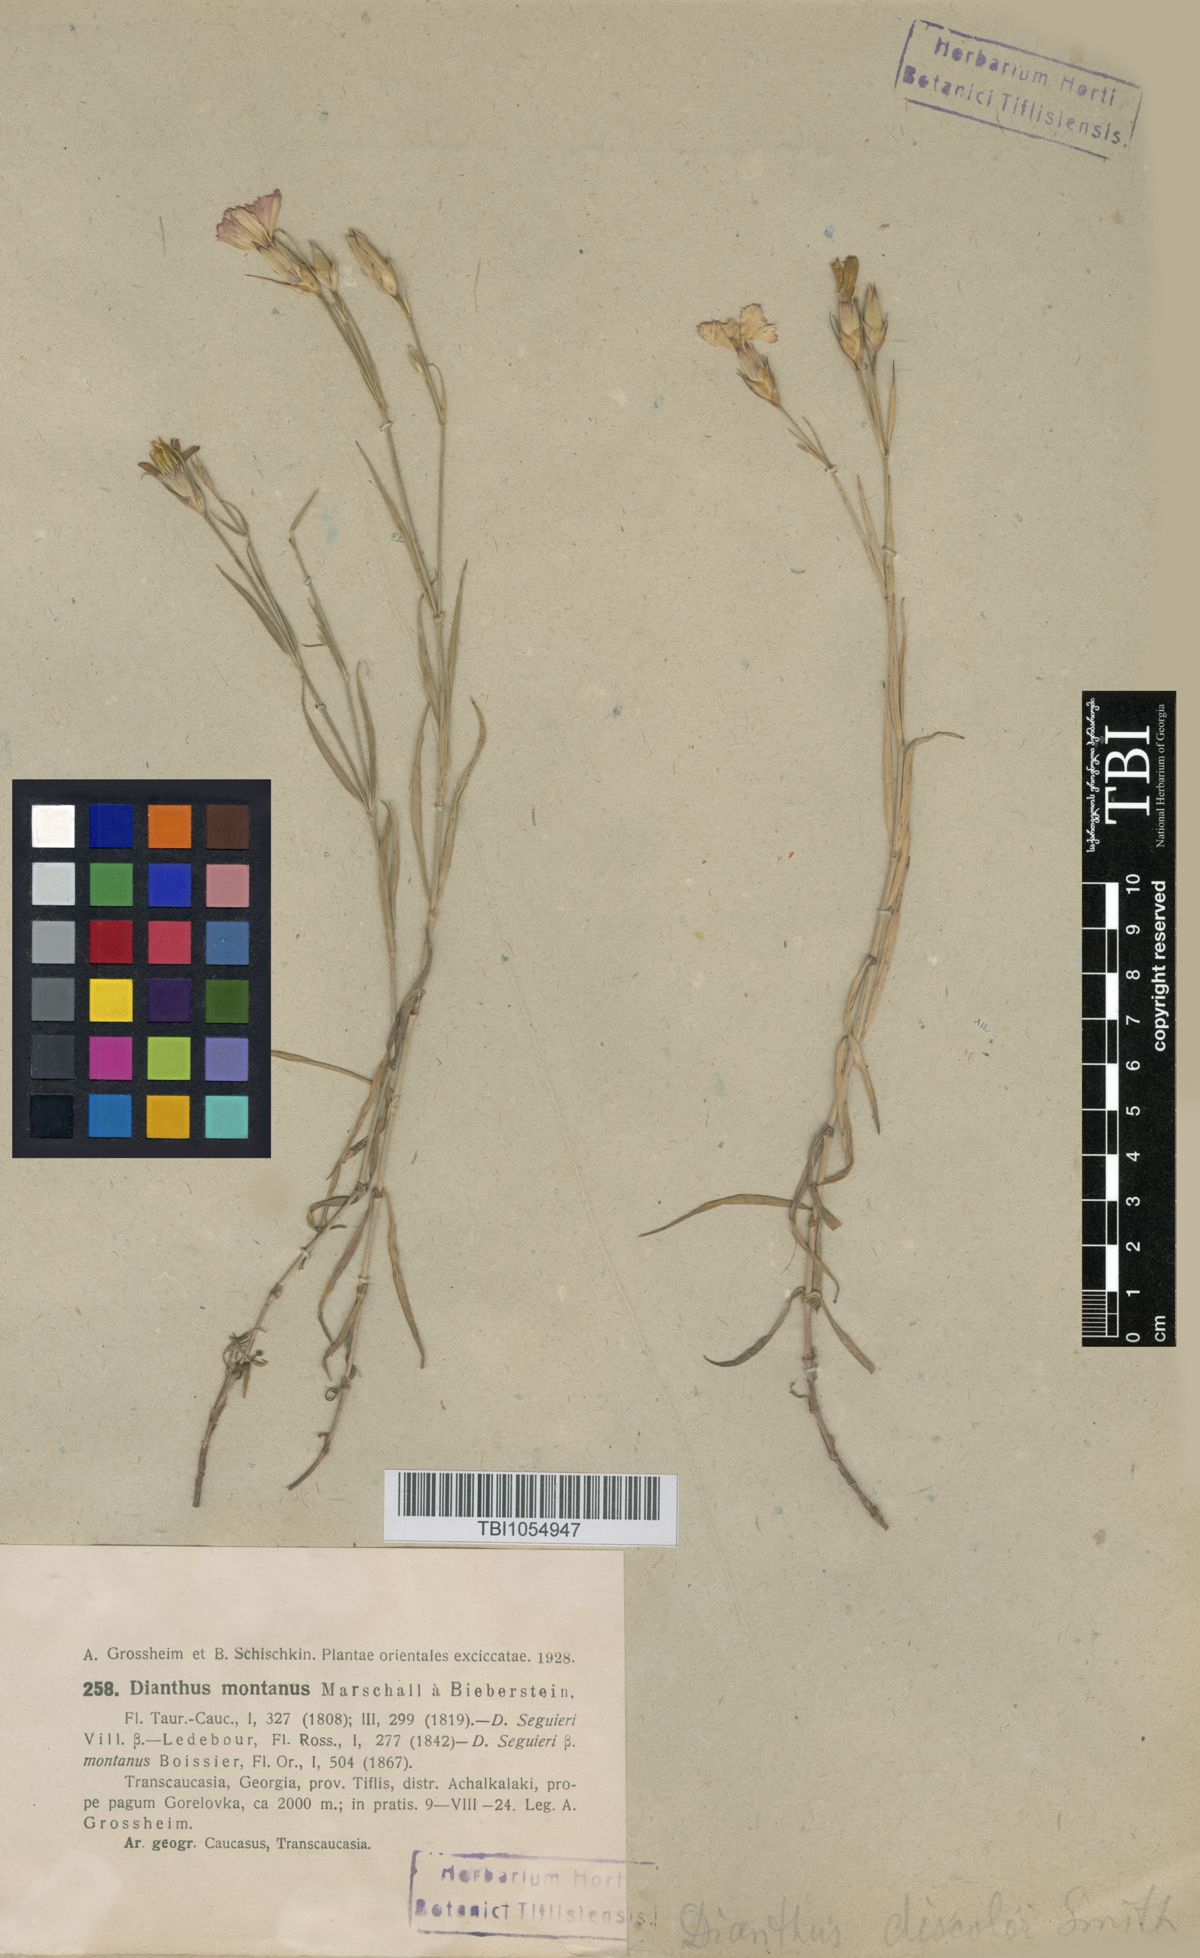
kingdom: Plantae
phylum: Tracheophyta
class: Magnoliopsida
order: Caryophyllales
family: Caryophyllaceae
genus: Dianthus
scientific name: Dianthus caucaseus
